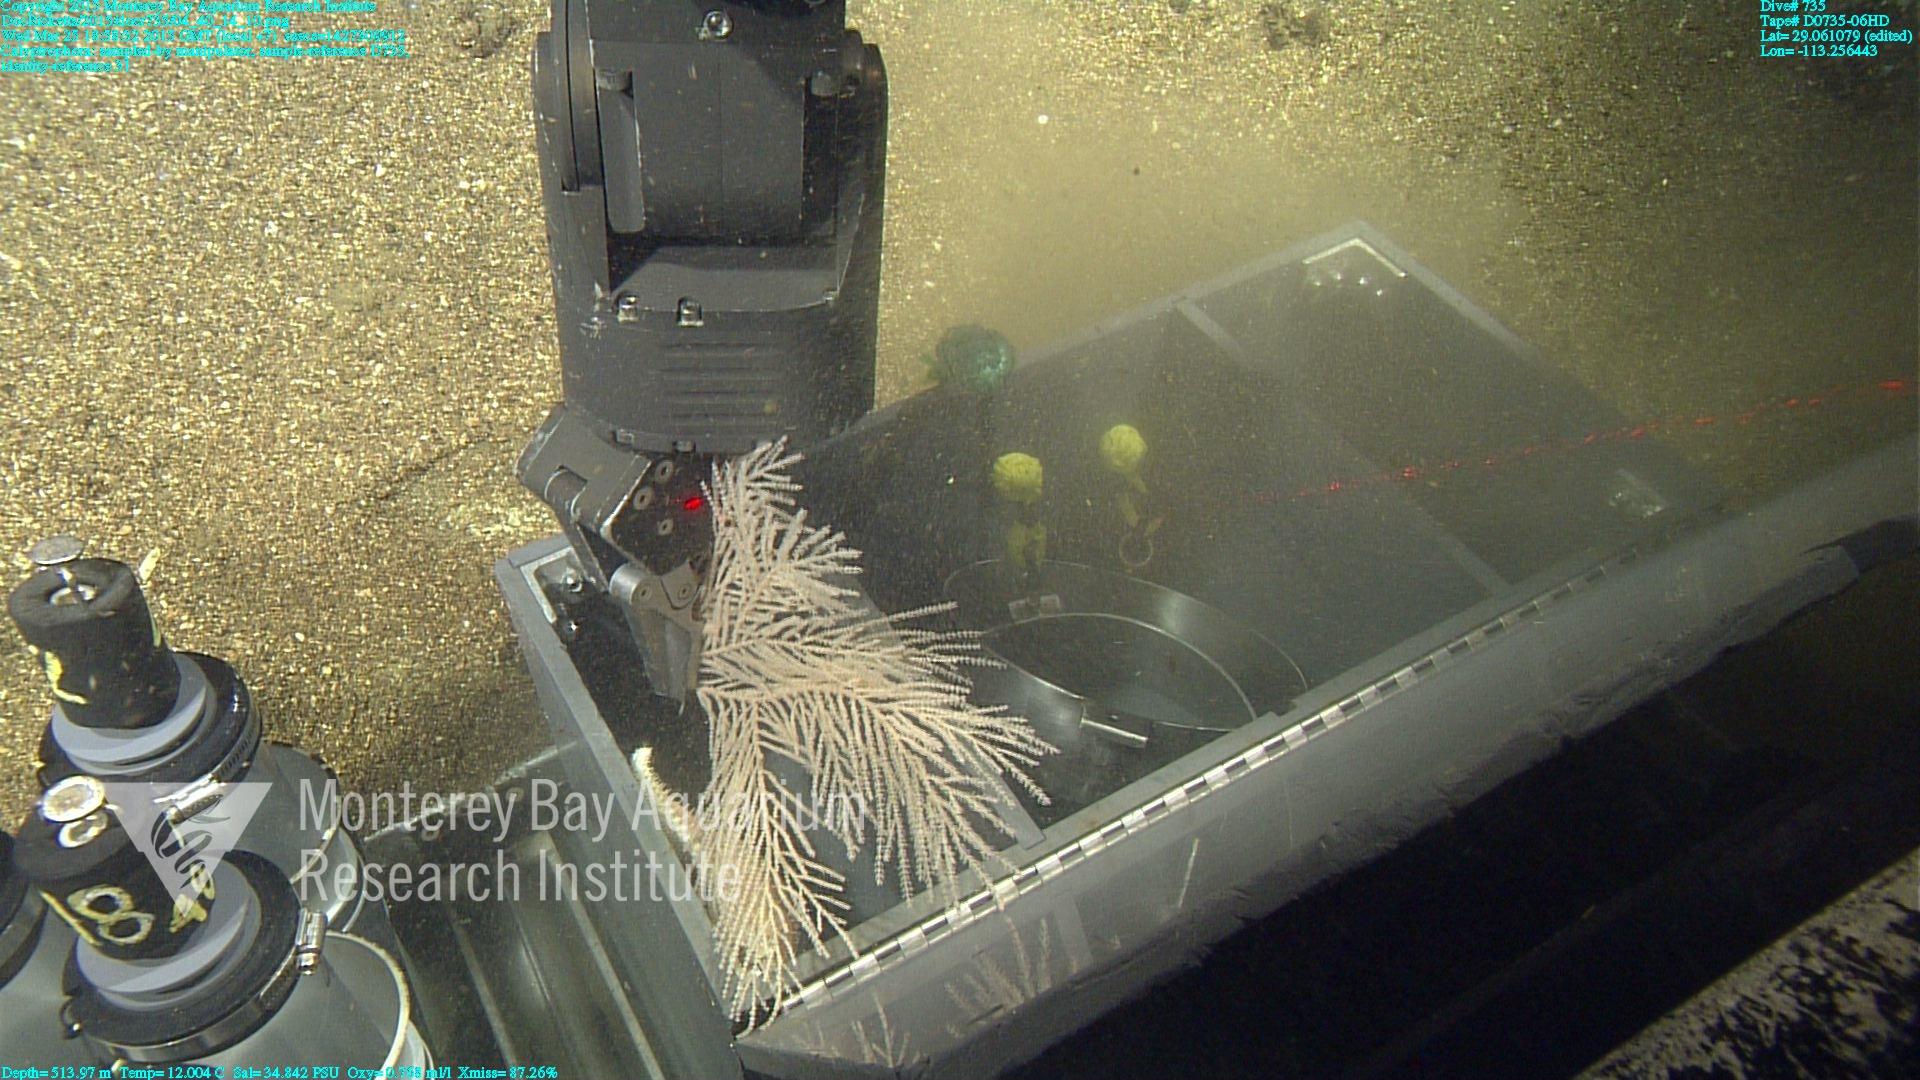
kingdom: Animalia
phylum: Cnidaria
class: Anthozoa
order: Scleralcyonacea
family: Primnoidae
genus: Calyptrophora
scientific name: Calyptrophora
